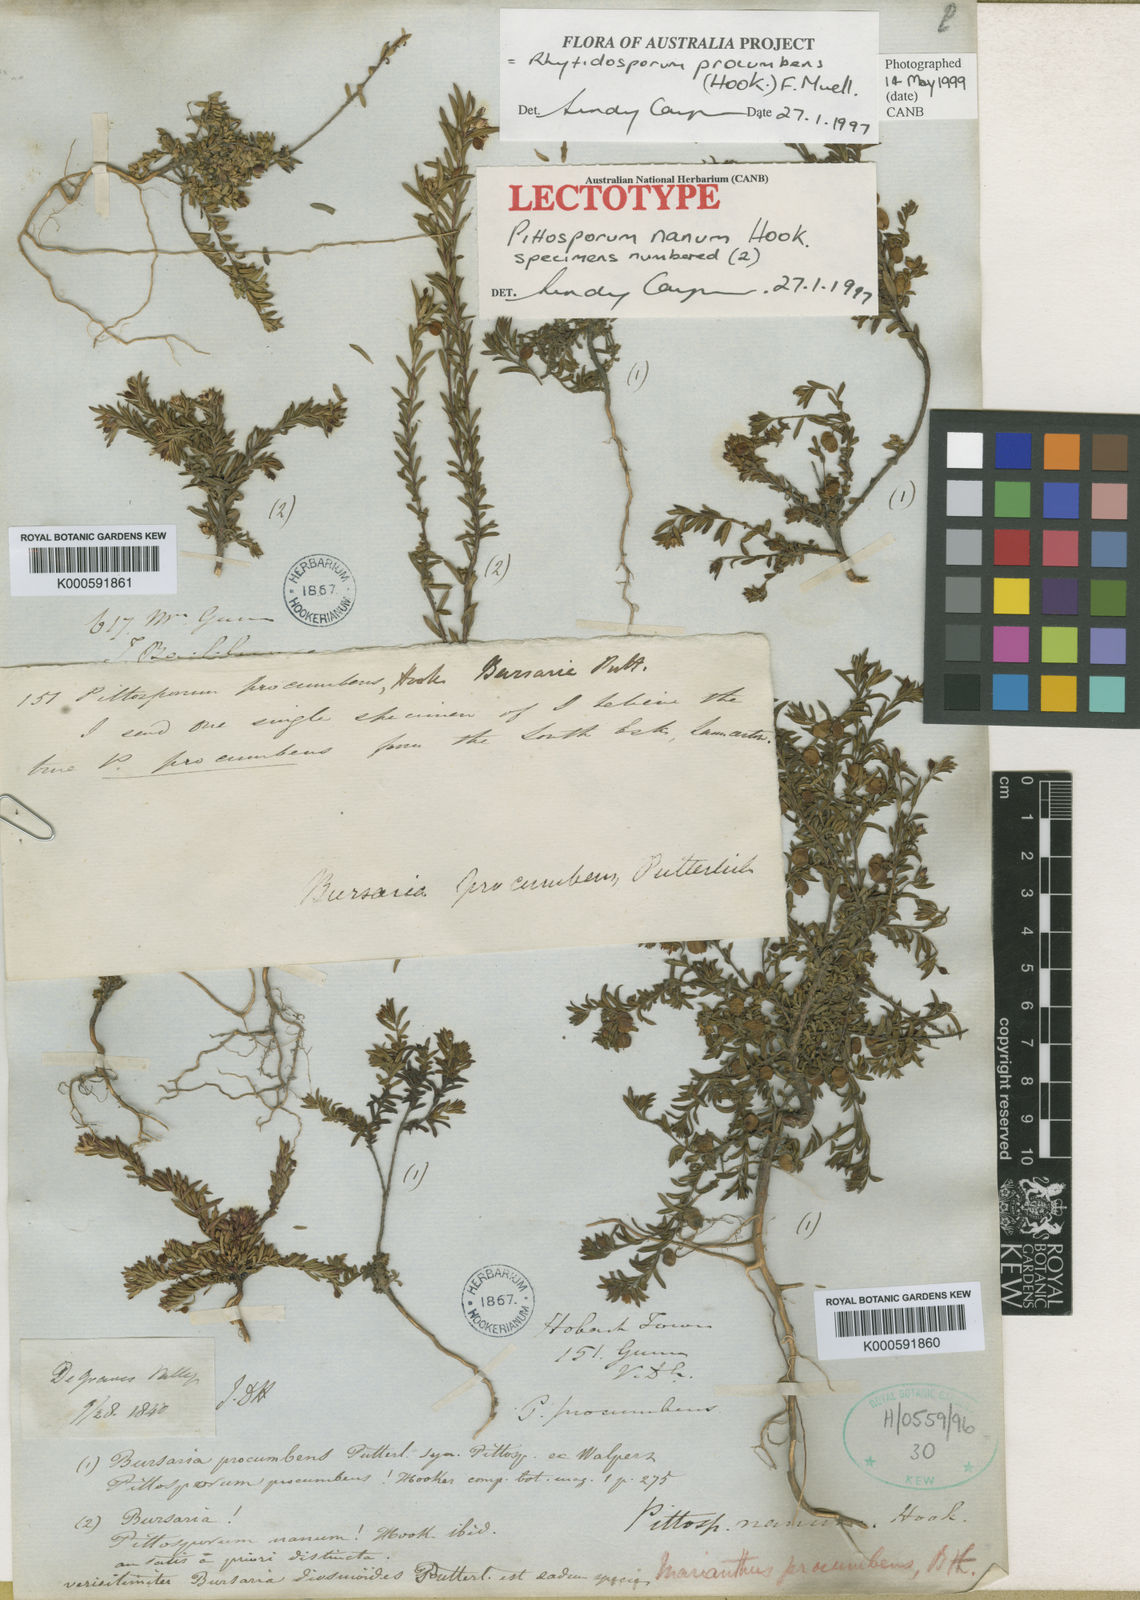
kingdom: Plantae
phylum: Tracheophyta
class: Magnoliopsida
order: Apiales
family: Pittosporaceae
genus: Rhytidosporum
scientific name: Rhytidosporum procumbens
